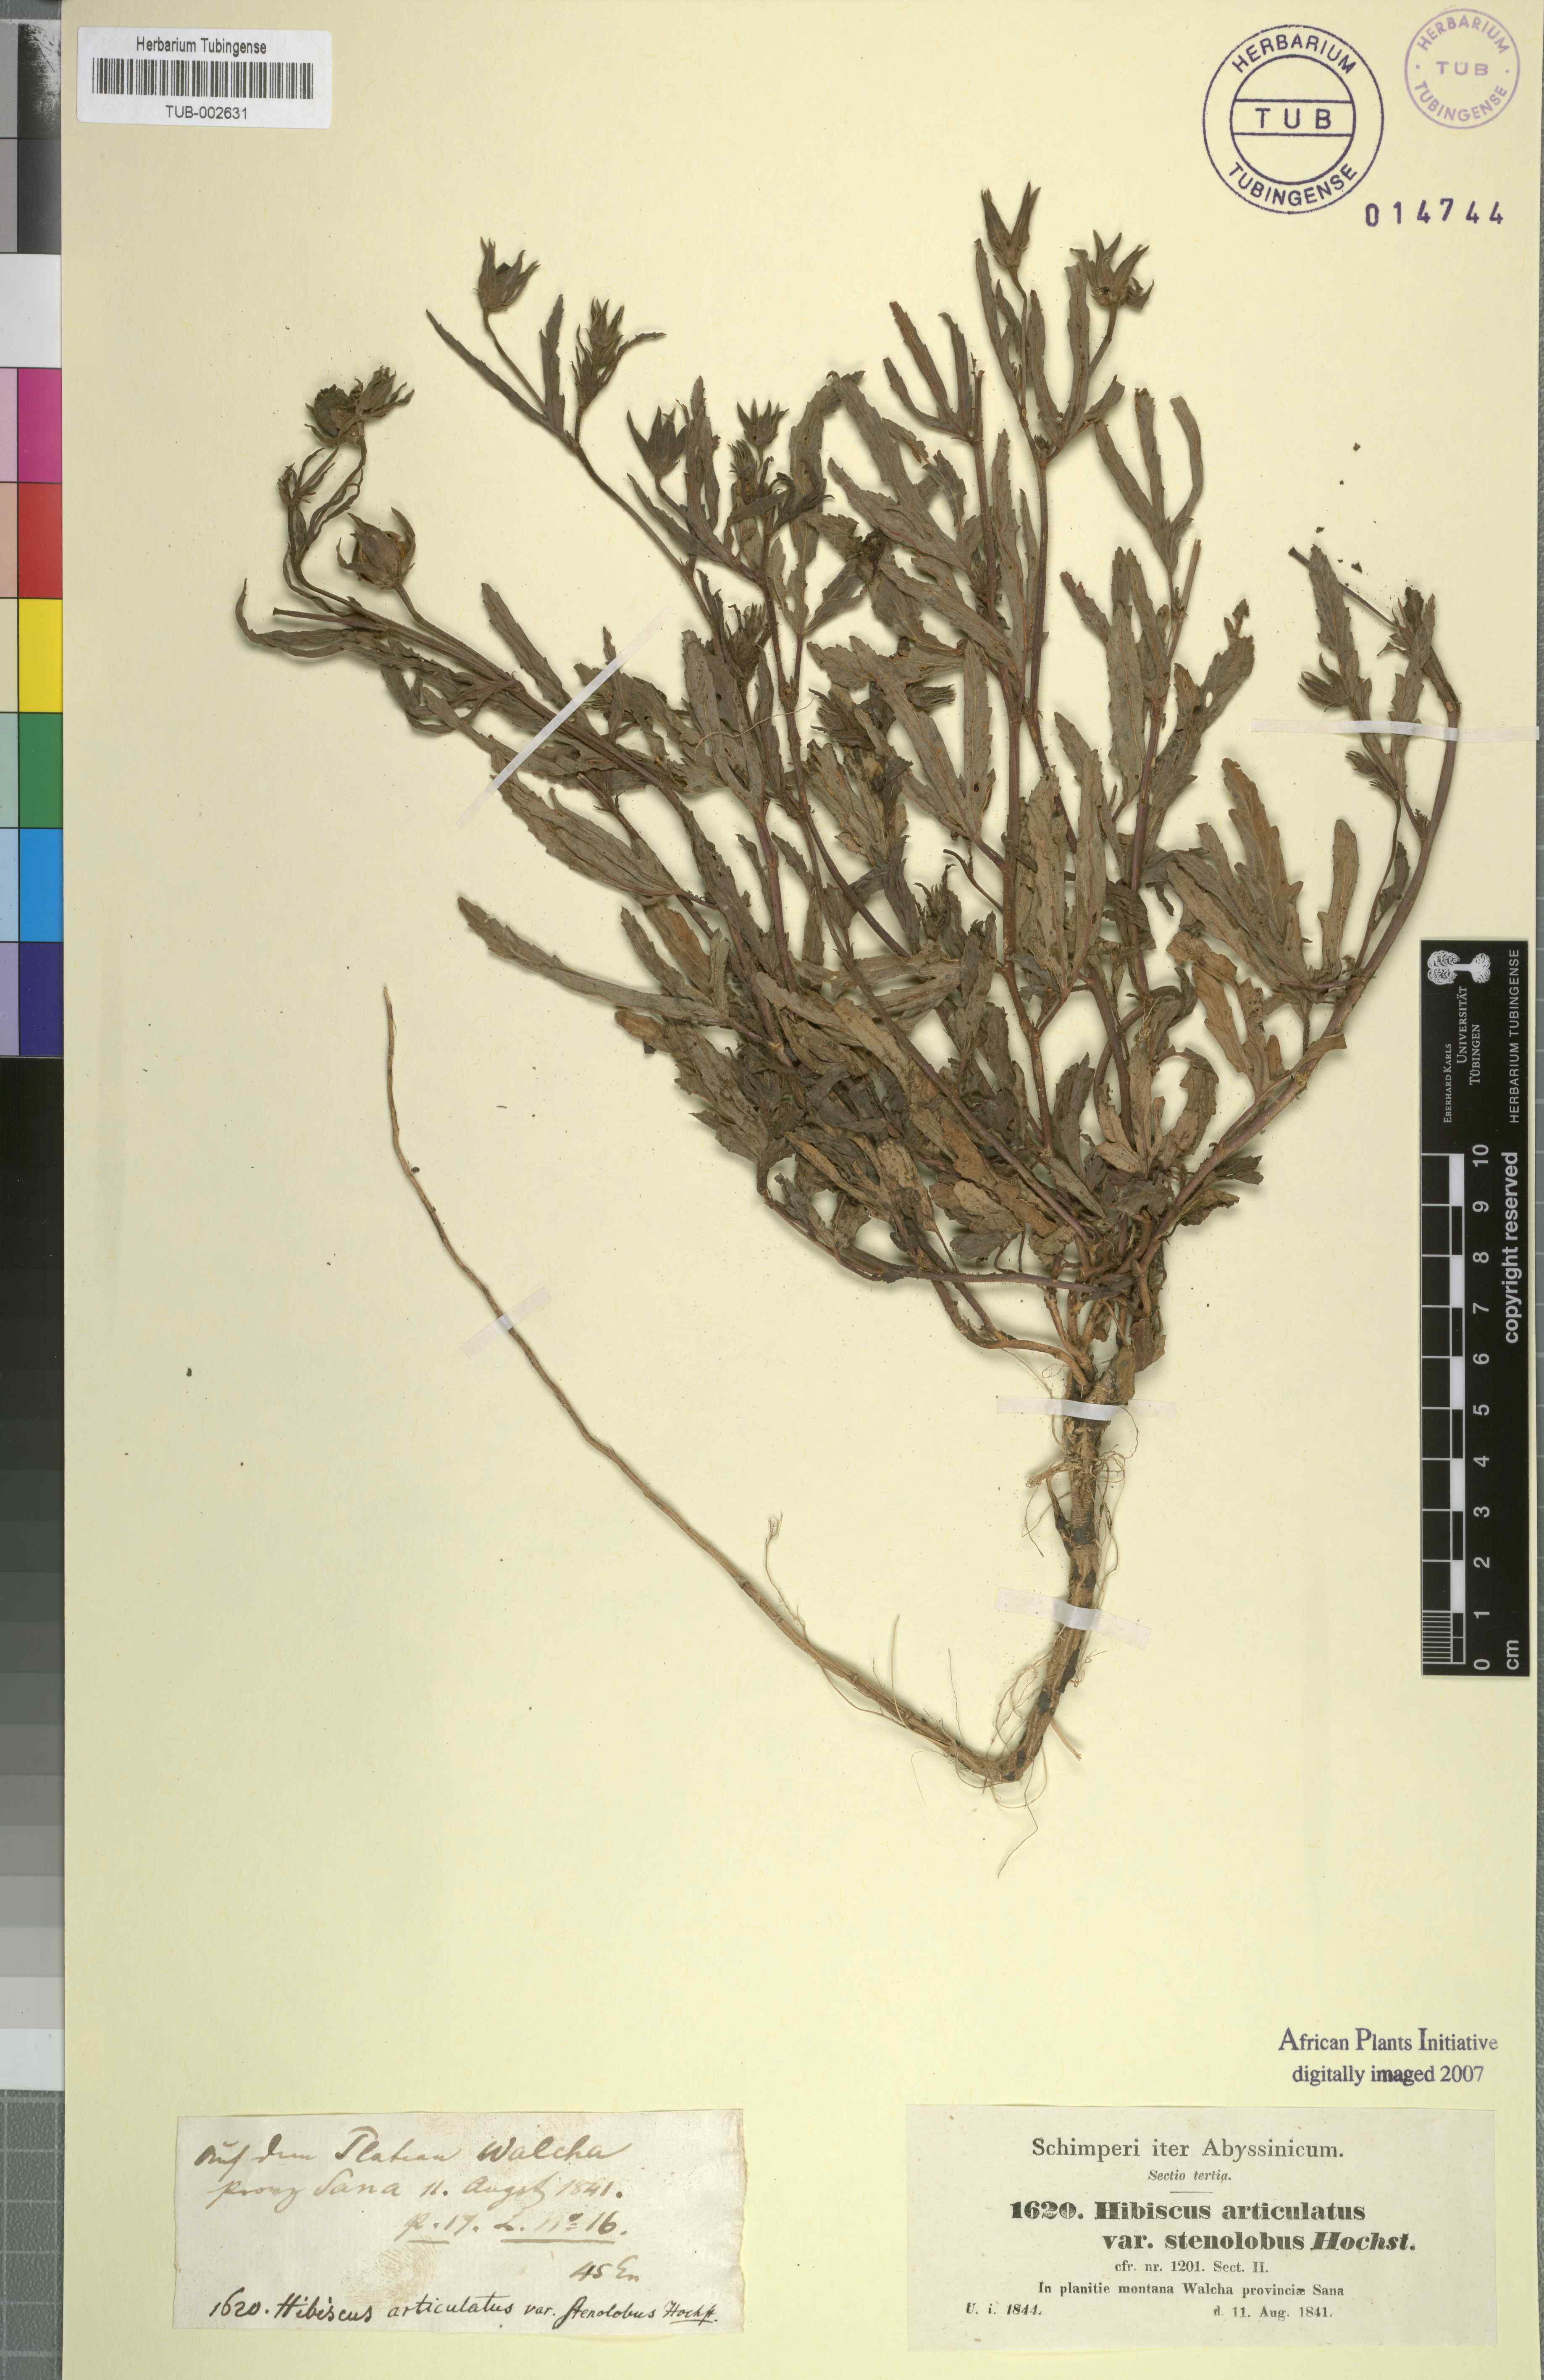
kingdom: Plantae
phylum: Tracheophyta
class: Magnoliopsida
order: Malvales
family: Malvaceae
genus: Hibiscus
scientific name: Hibiscus articulatus
